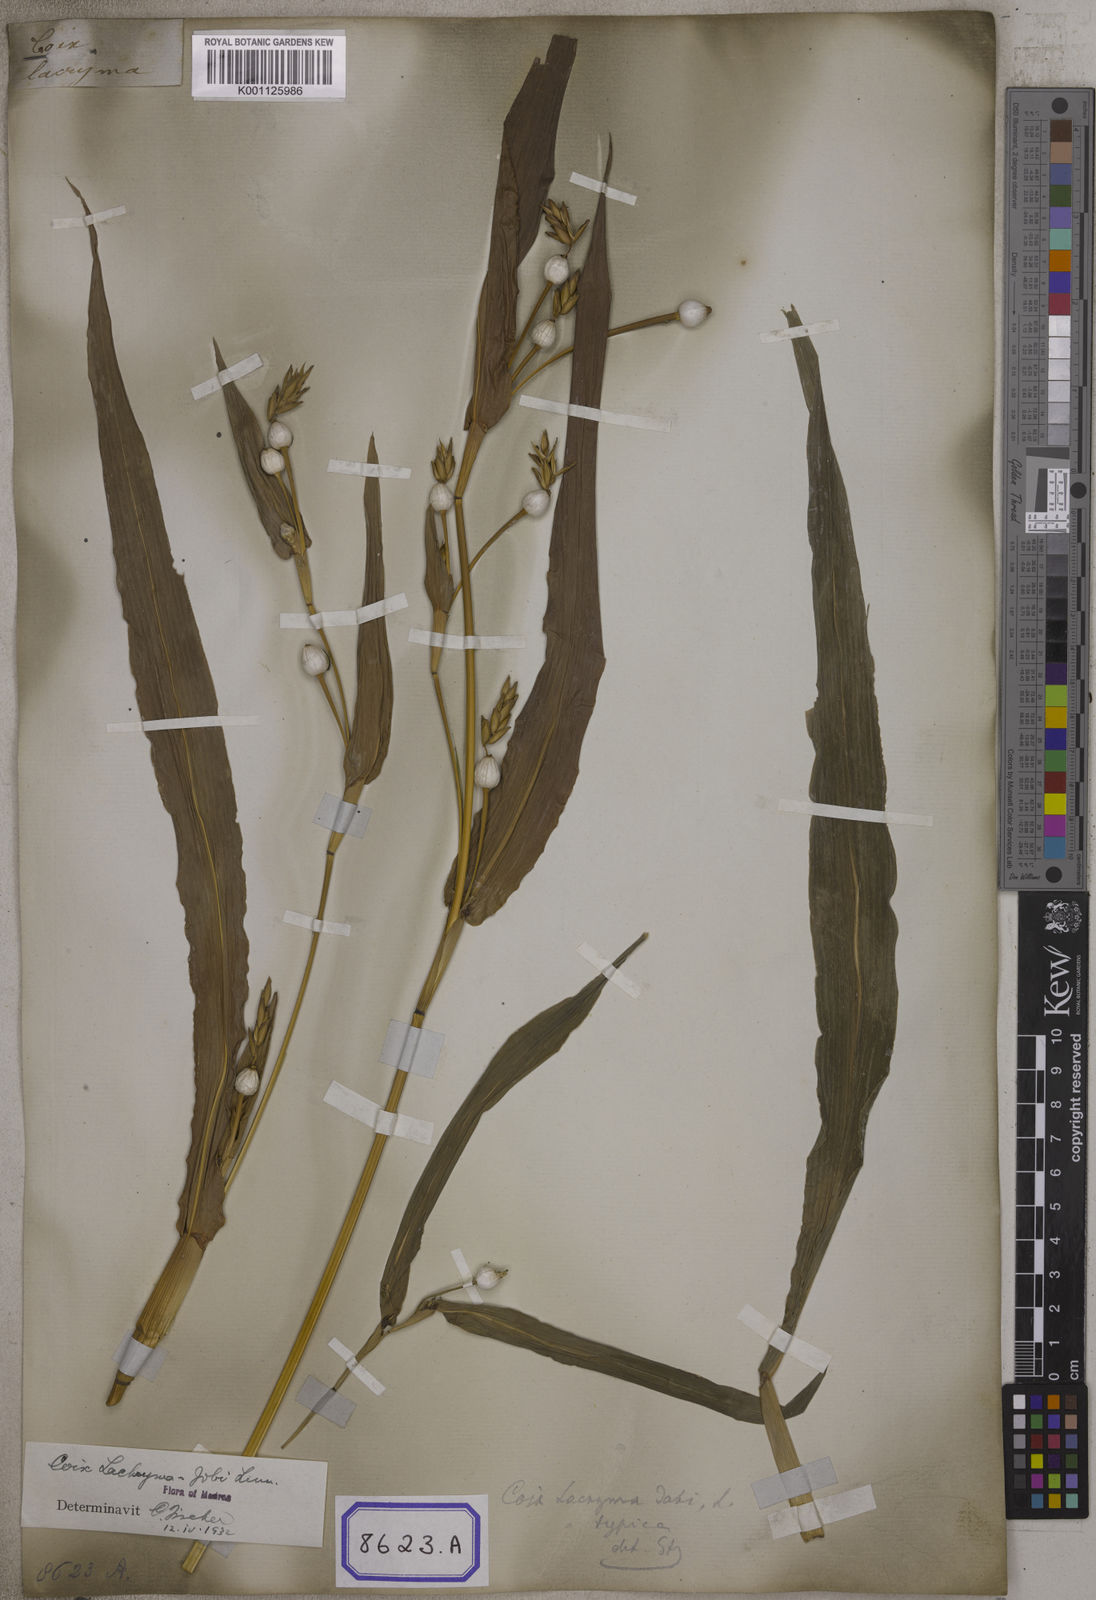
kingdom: Plantae
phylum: Tracheophyta
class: Liliopsida
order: Poales
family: Poaceae
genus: Coix
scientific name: Coix lacryma-jobi
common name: Job's tears
